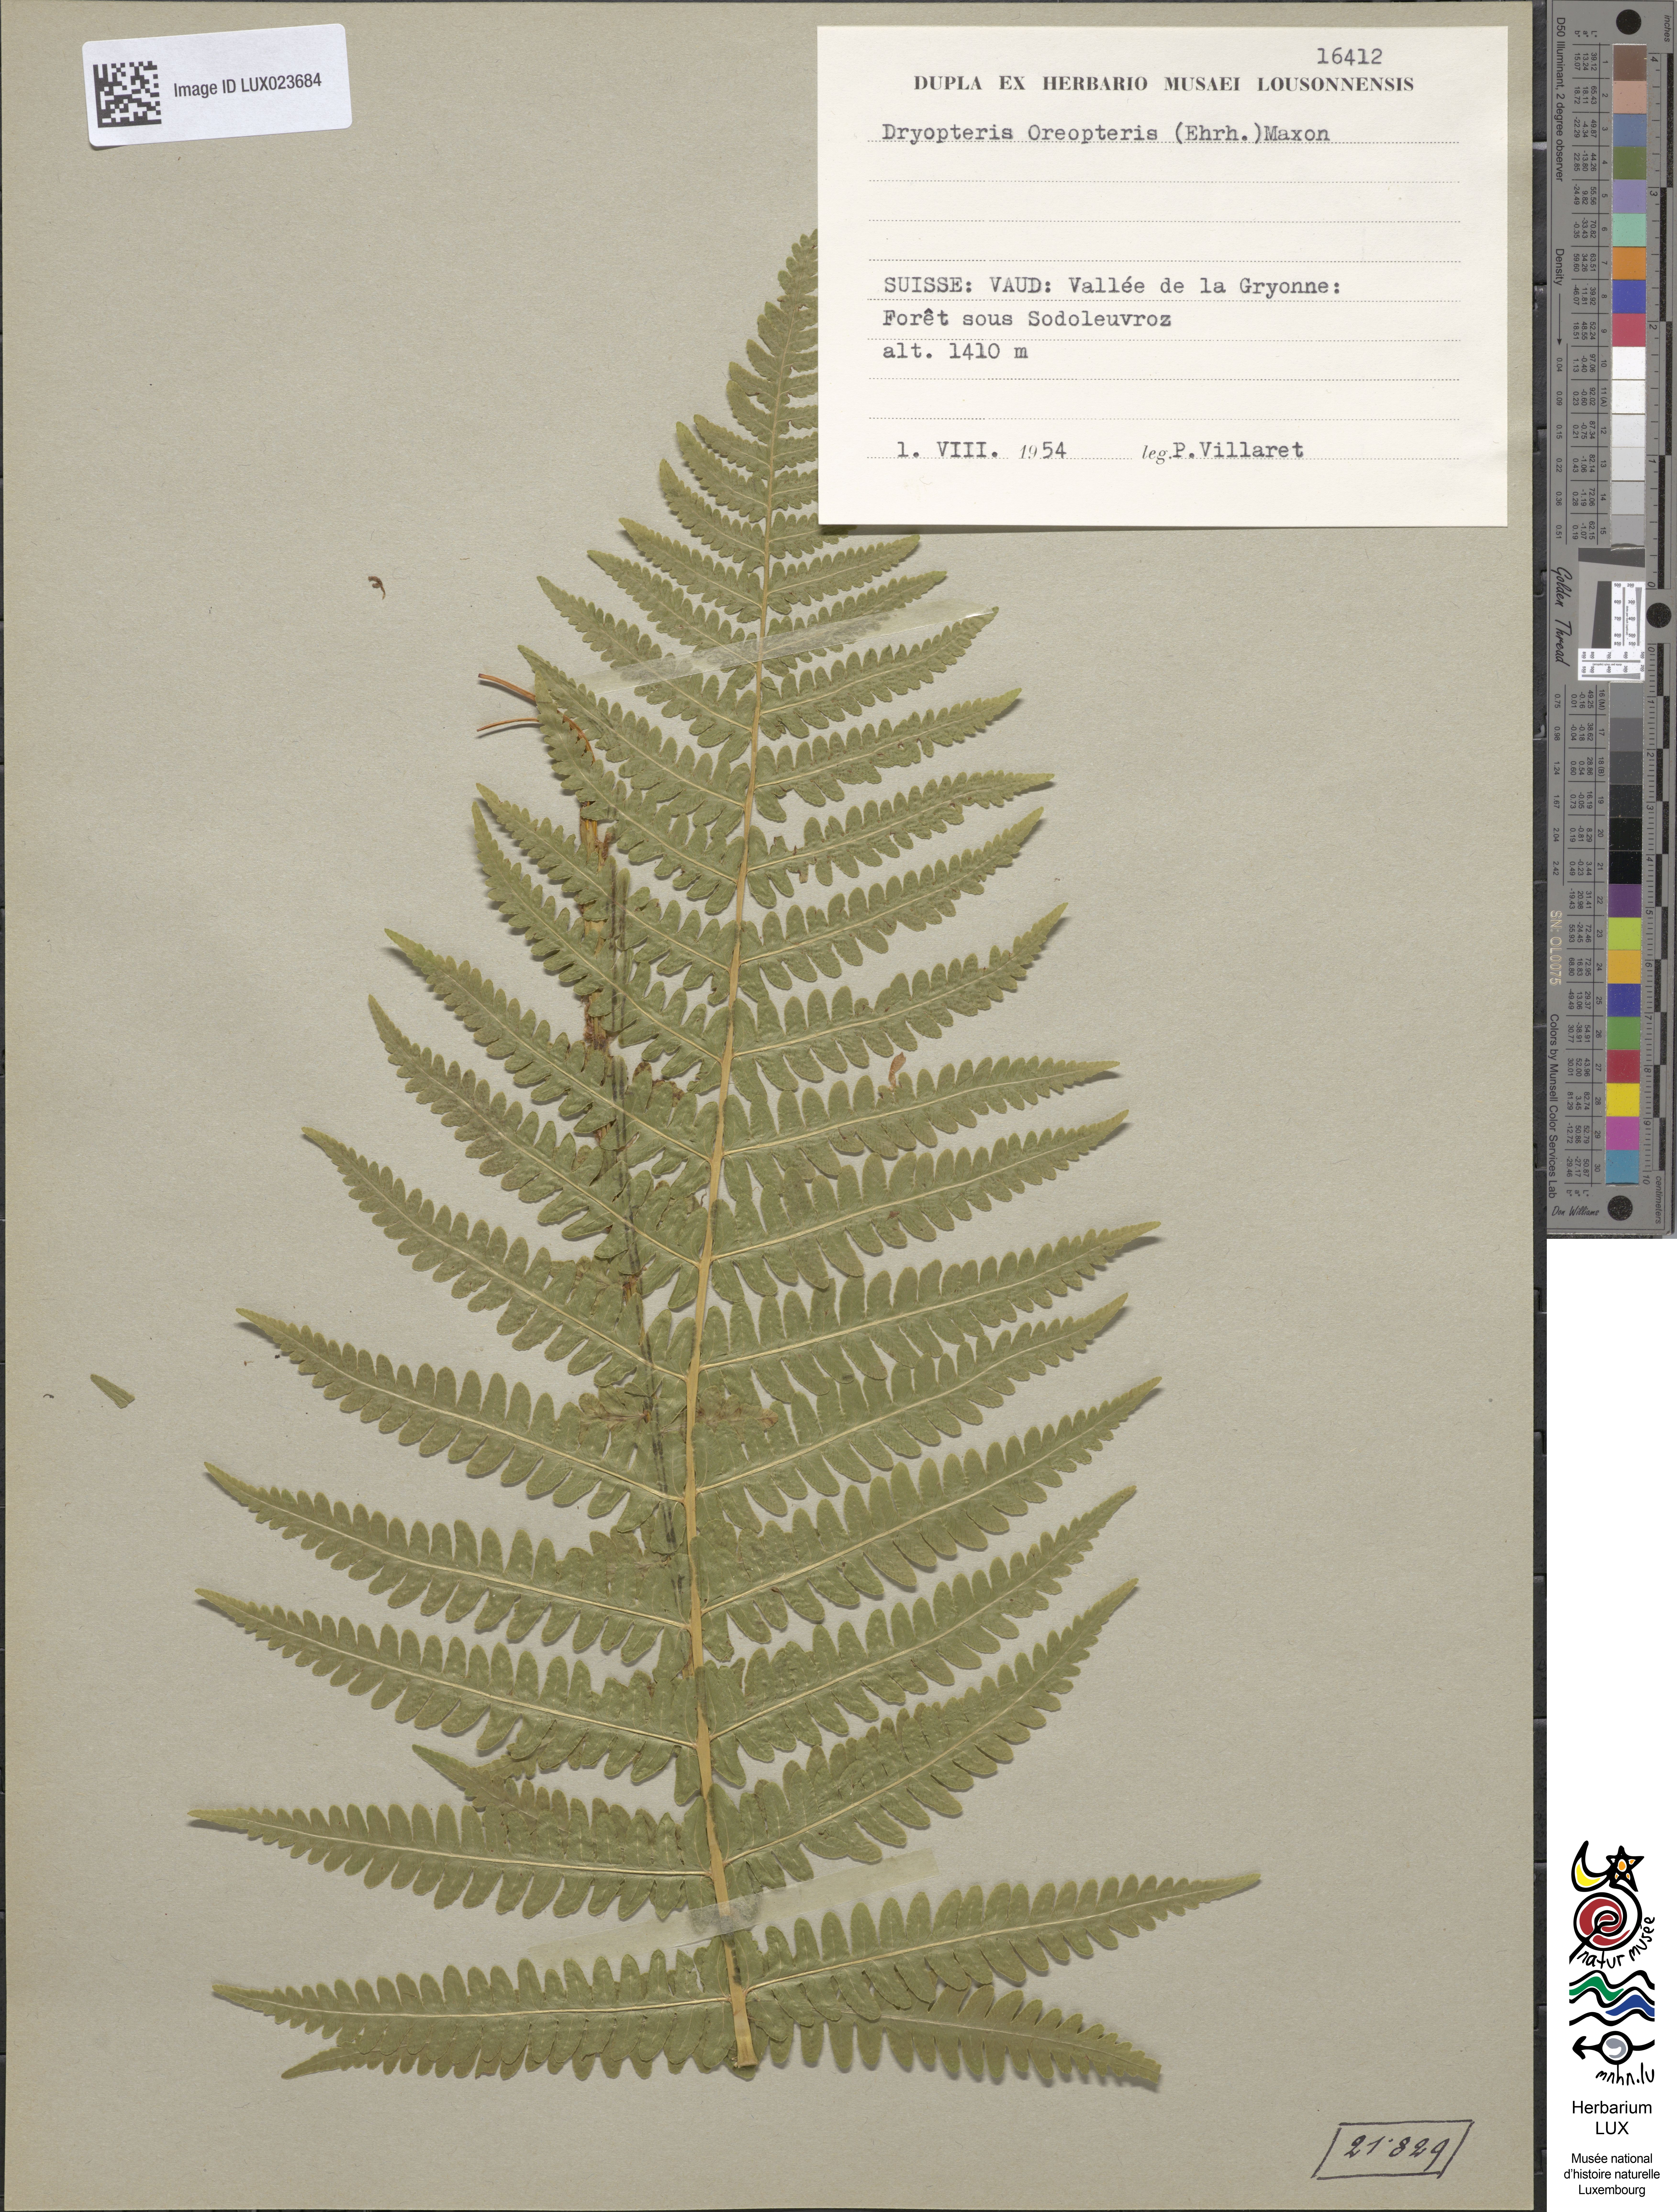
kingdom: Plantae
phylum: Tracheophyta
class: Polypodiopsida
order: Polypodiales
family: Thelypteridaceae
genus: Oreopteris
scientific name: Oreopteris limbosperma
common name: Lemon-scented fern
